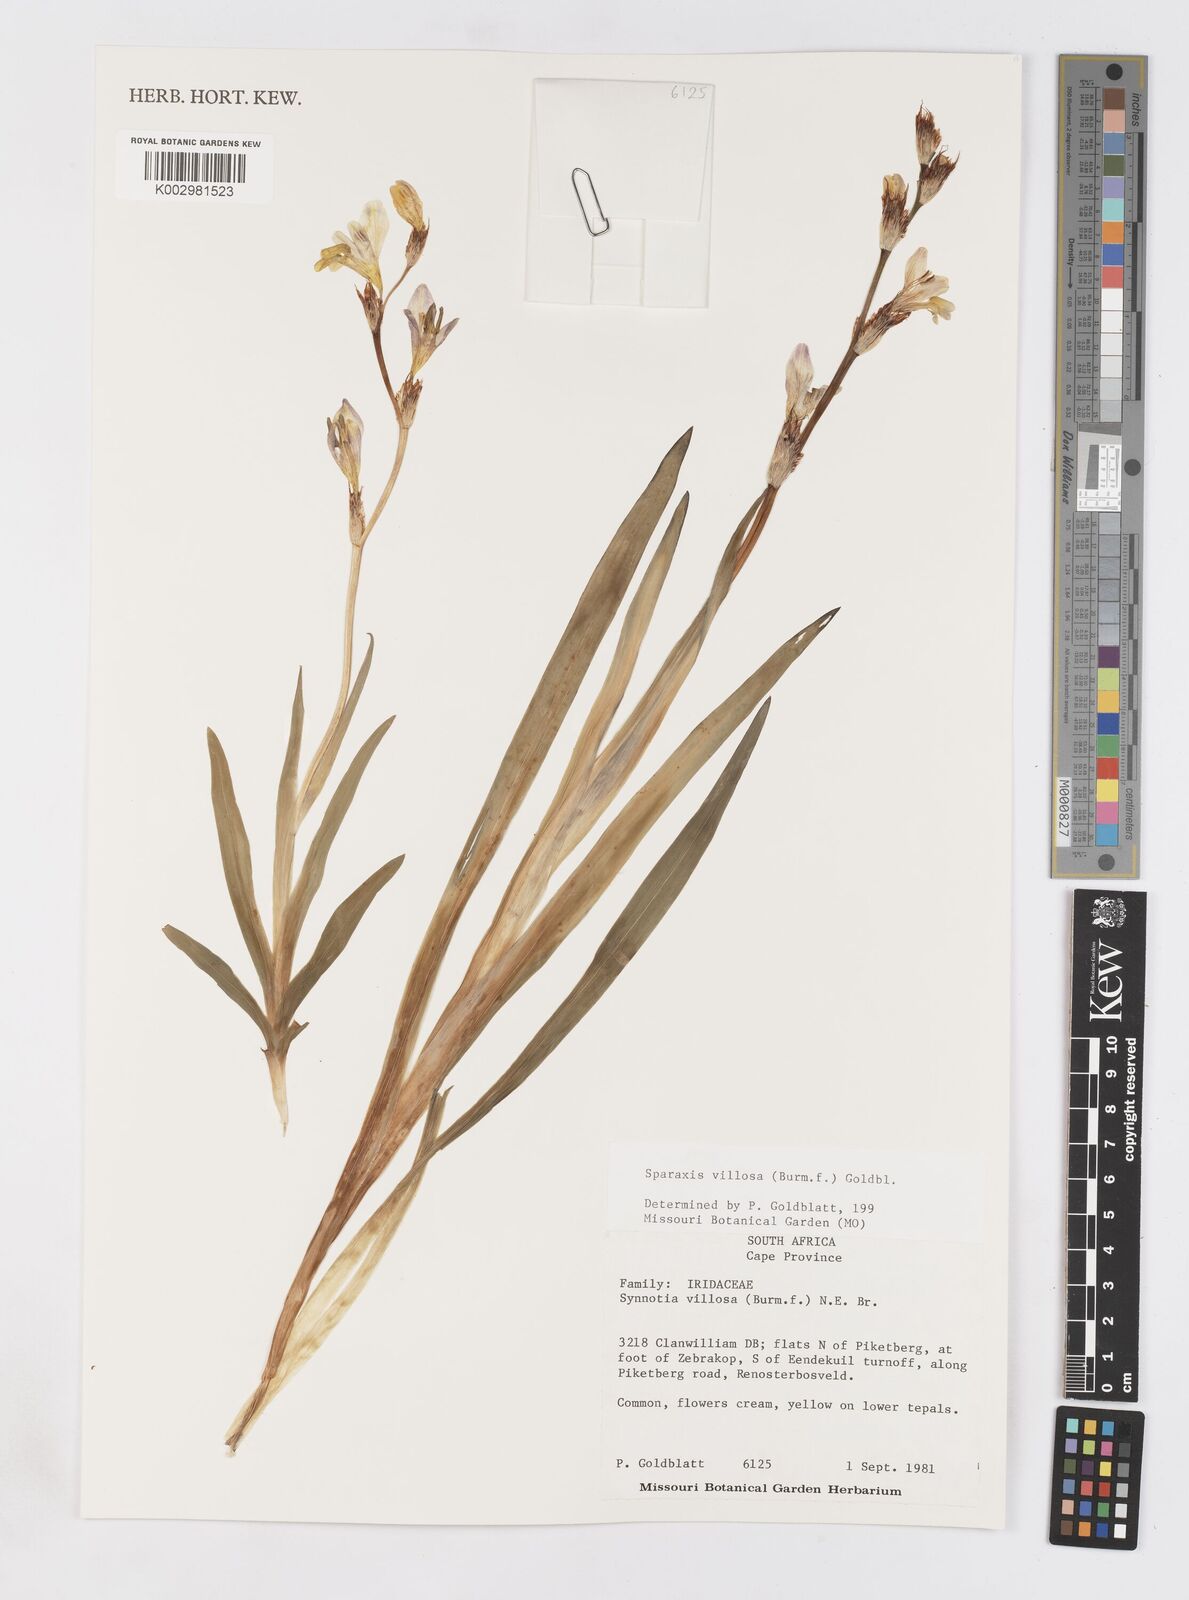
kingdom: Plantae
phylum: Tracheophyta
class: Liliopsida
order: Asparagales
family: Iridaceae
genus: Sparaxis
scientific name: Sparaxis villosa
